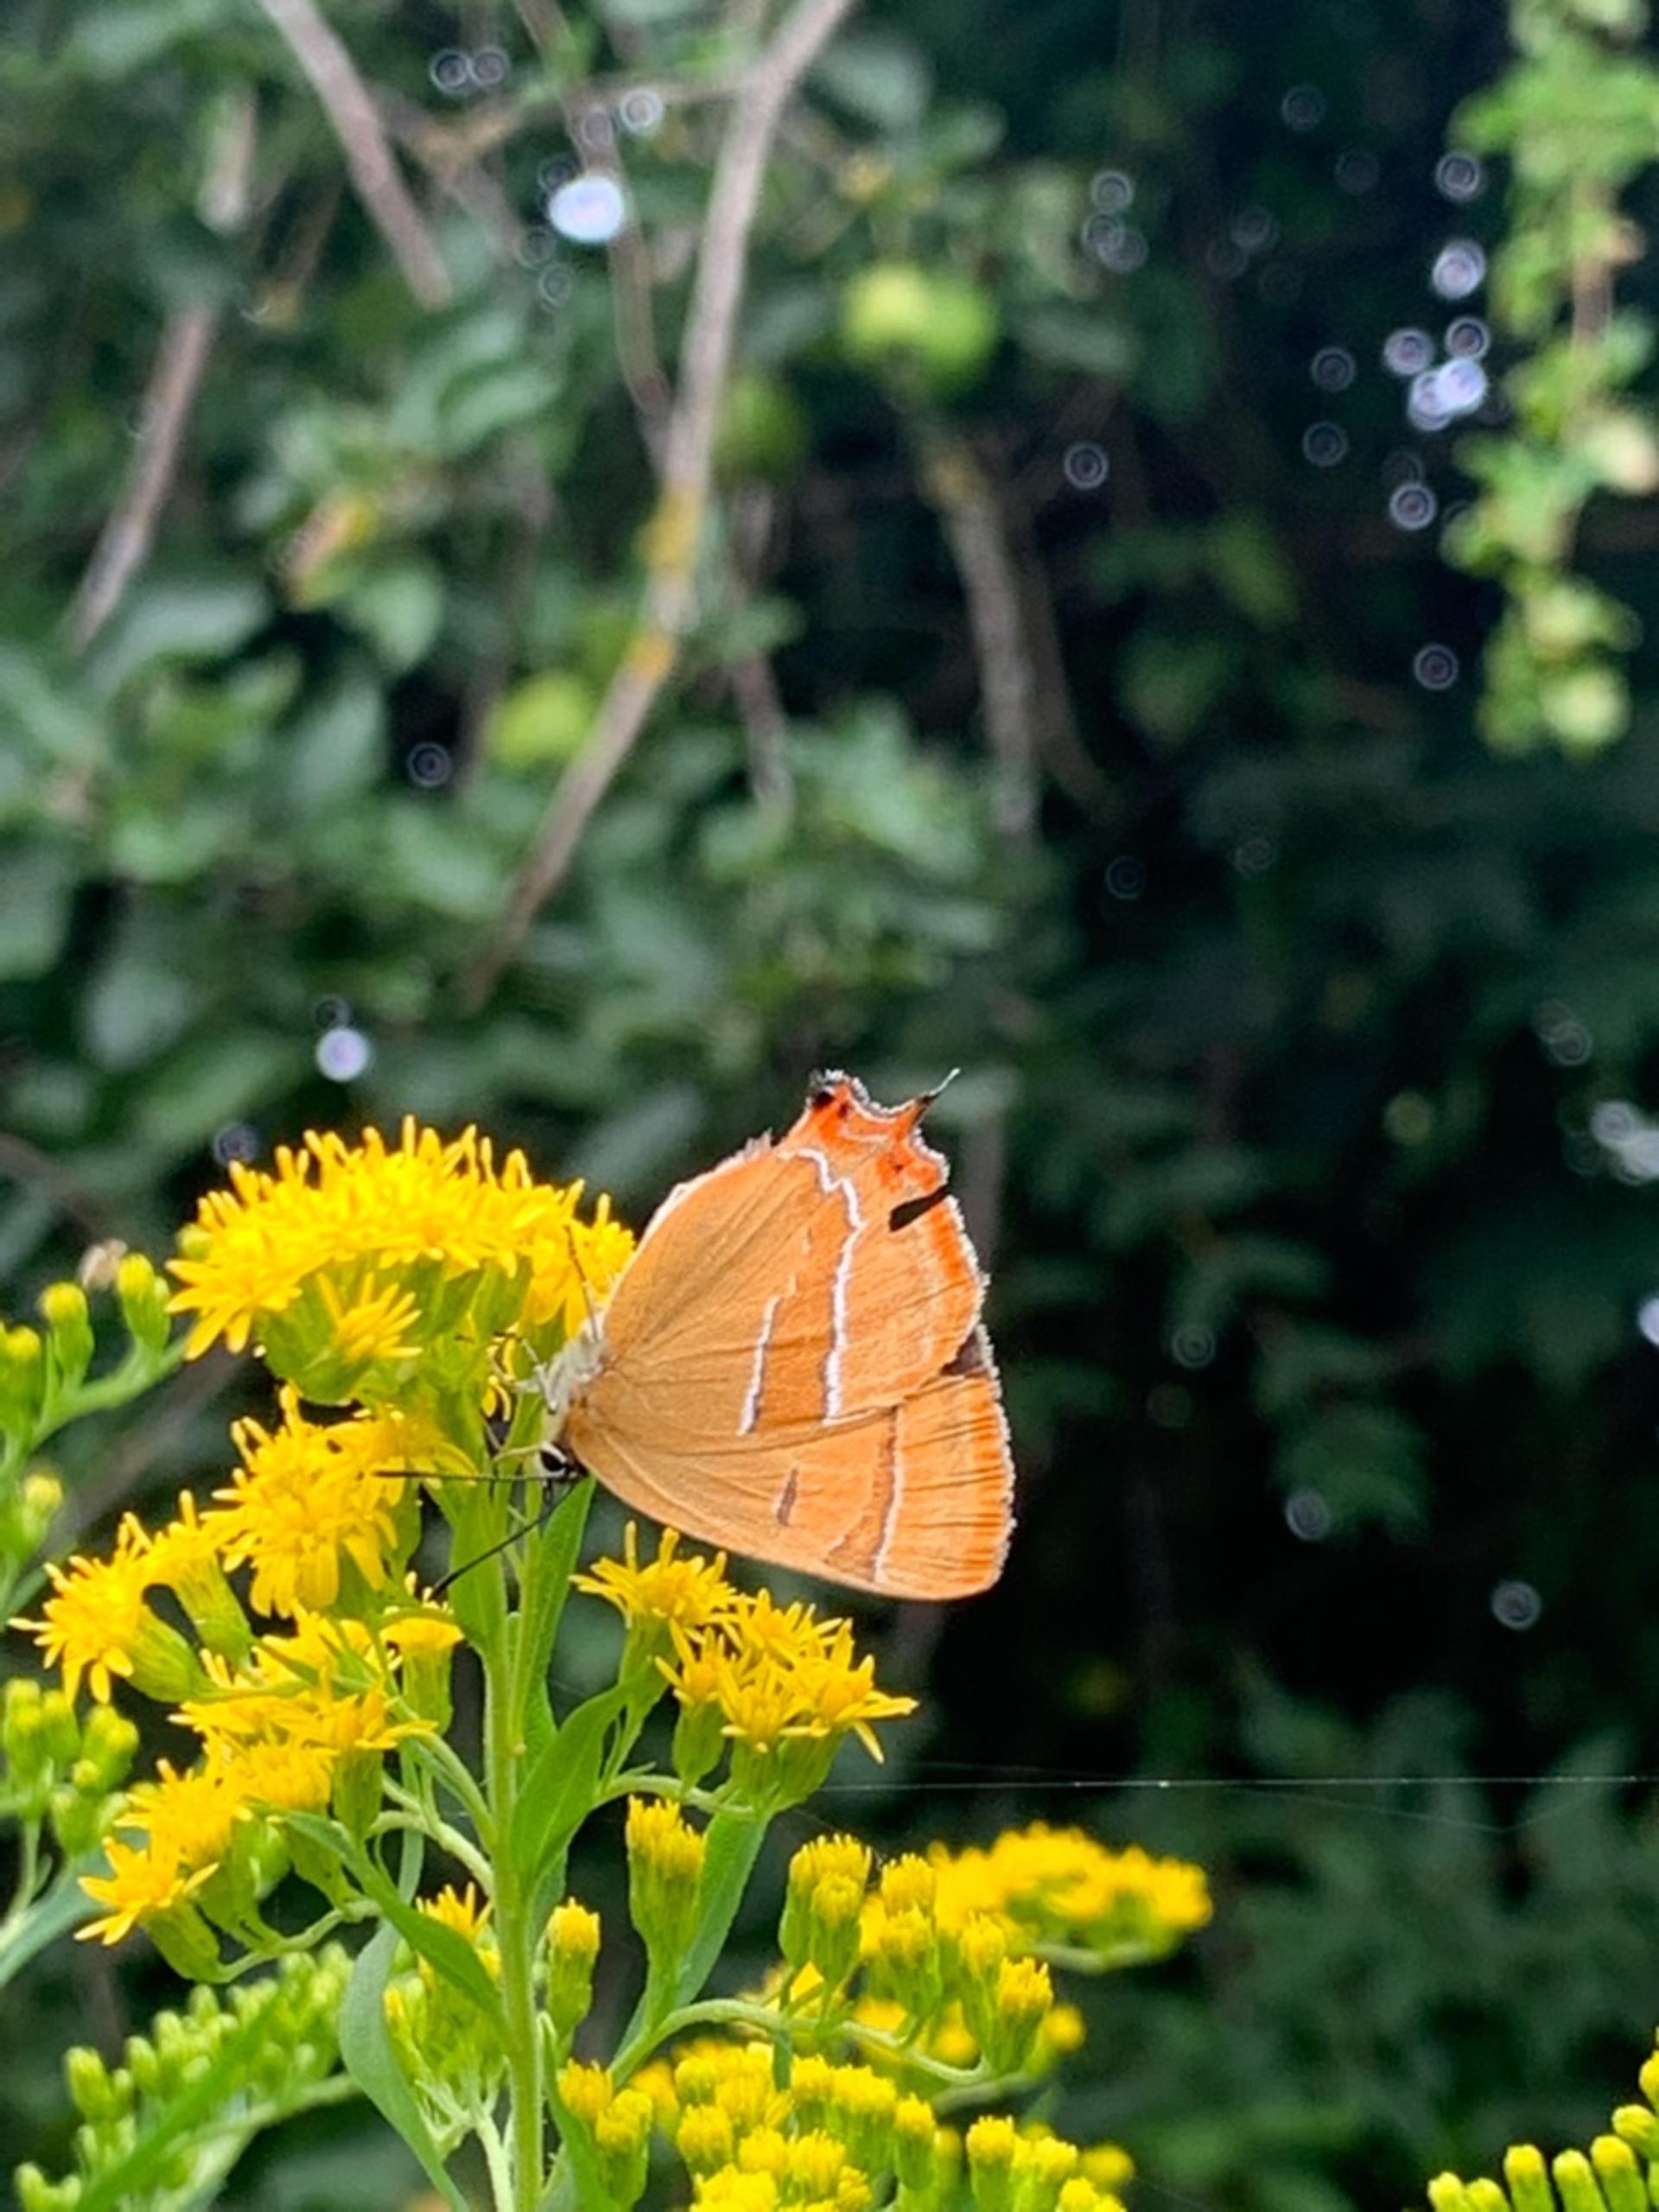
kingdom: Animalia
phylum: Arthropoda
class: Insecta
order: Lepidoptera
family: Lycaenidae
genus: Thecla
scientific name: Thecla betulae
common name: Guldhale
